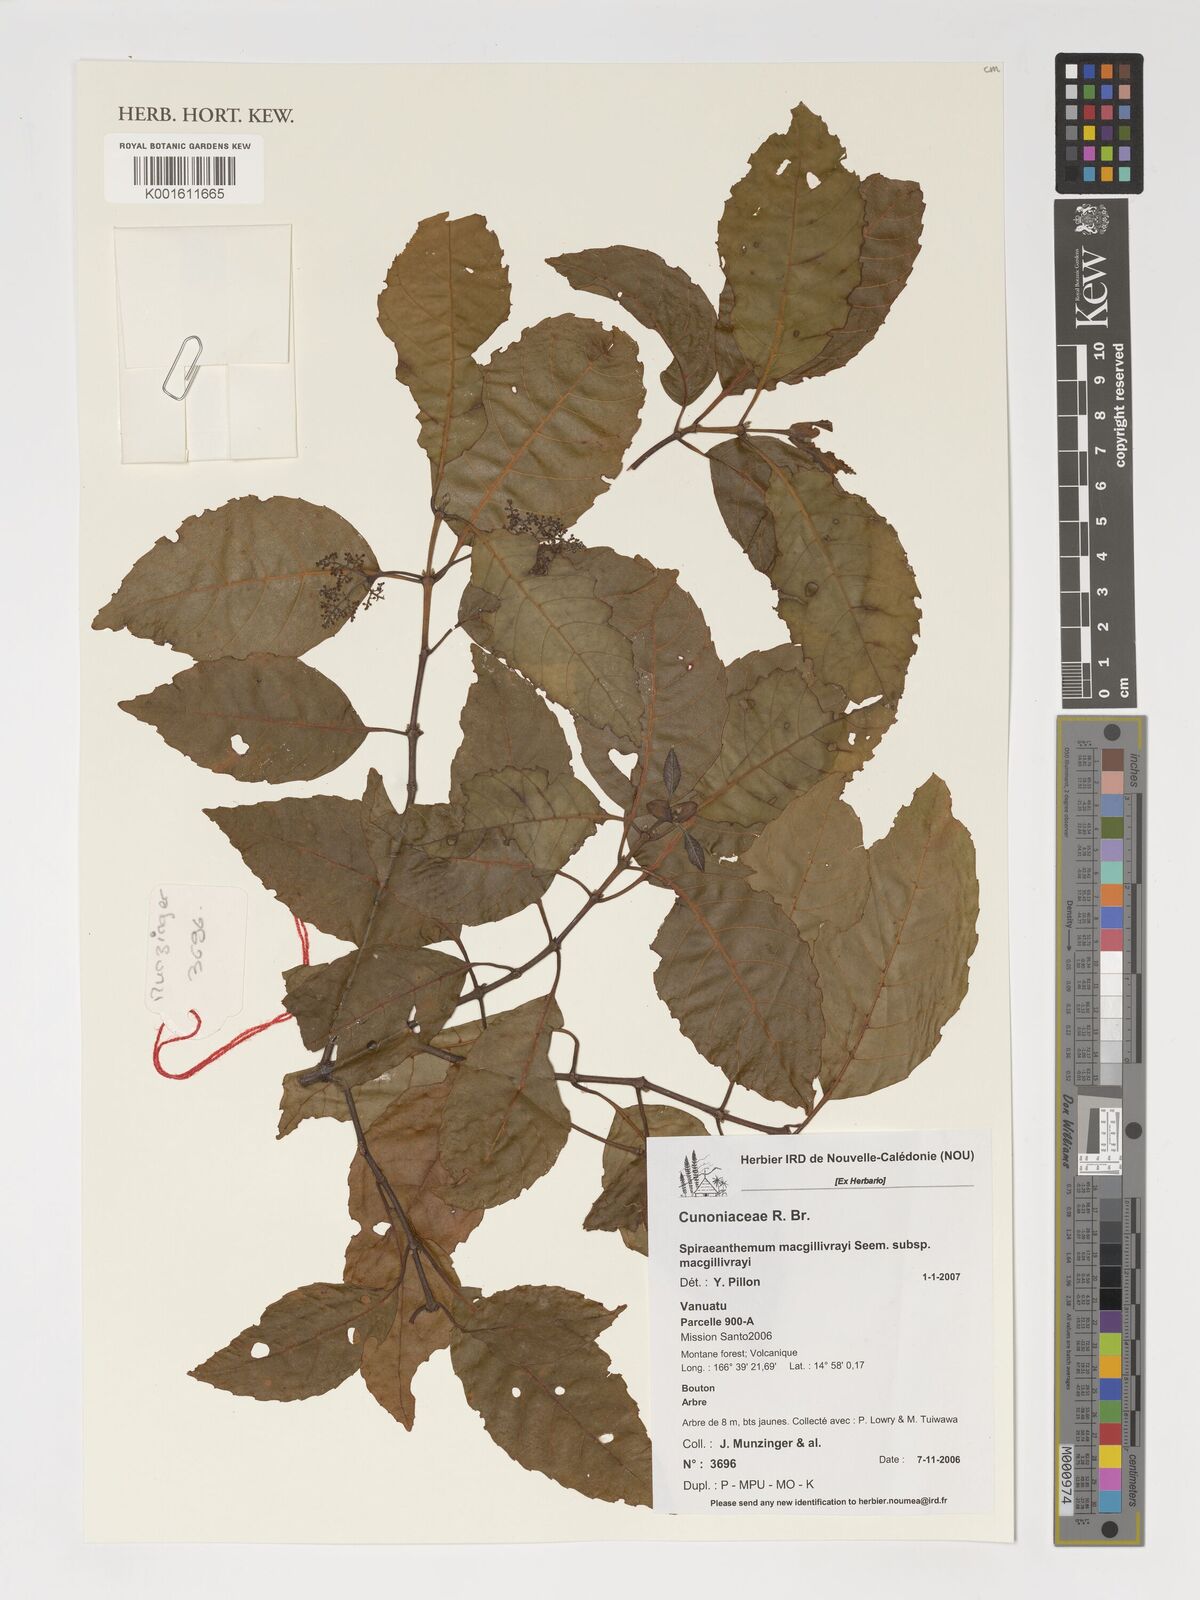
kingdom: Plantae
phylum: Tracheophyta
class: Magnoliopsida
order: Oxalidales
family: Cunoniaceae
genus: Spiraeanthemum
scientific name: Spiraeanthemum macgillivrayi
